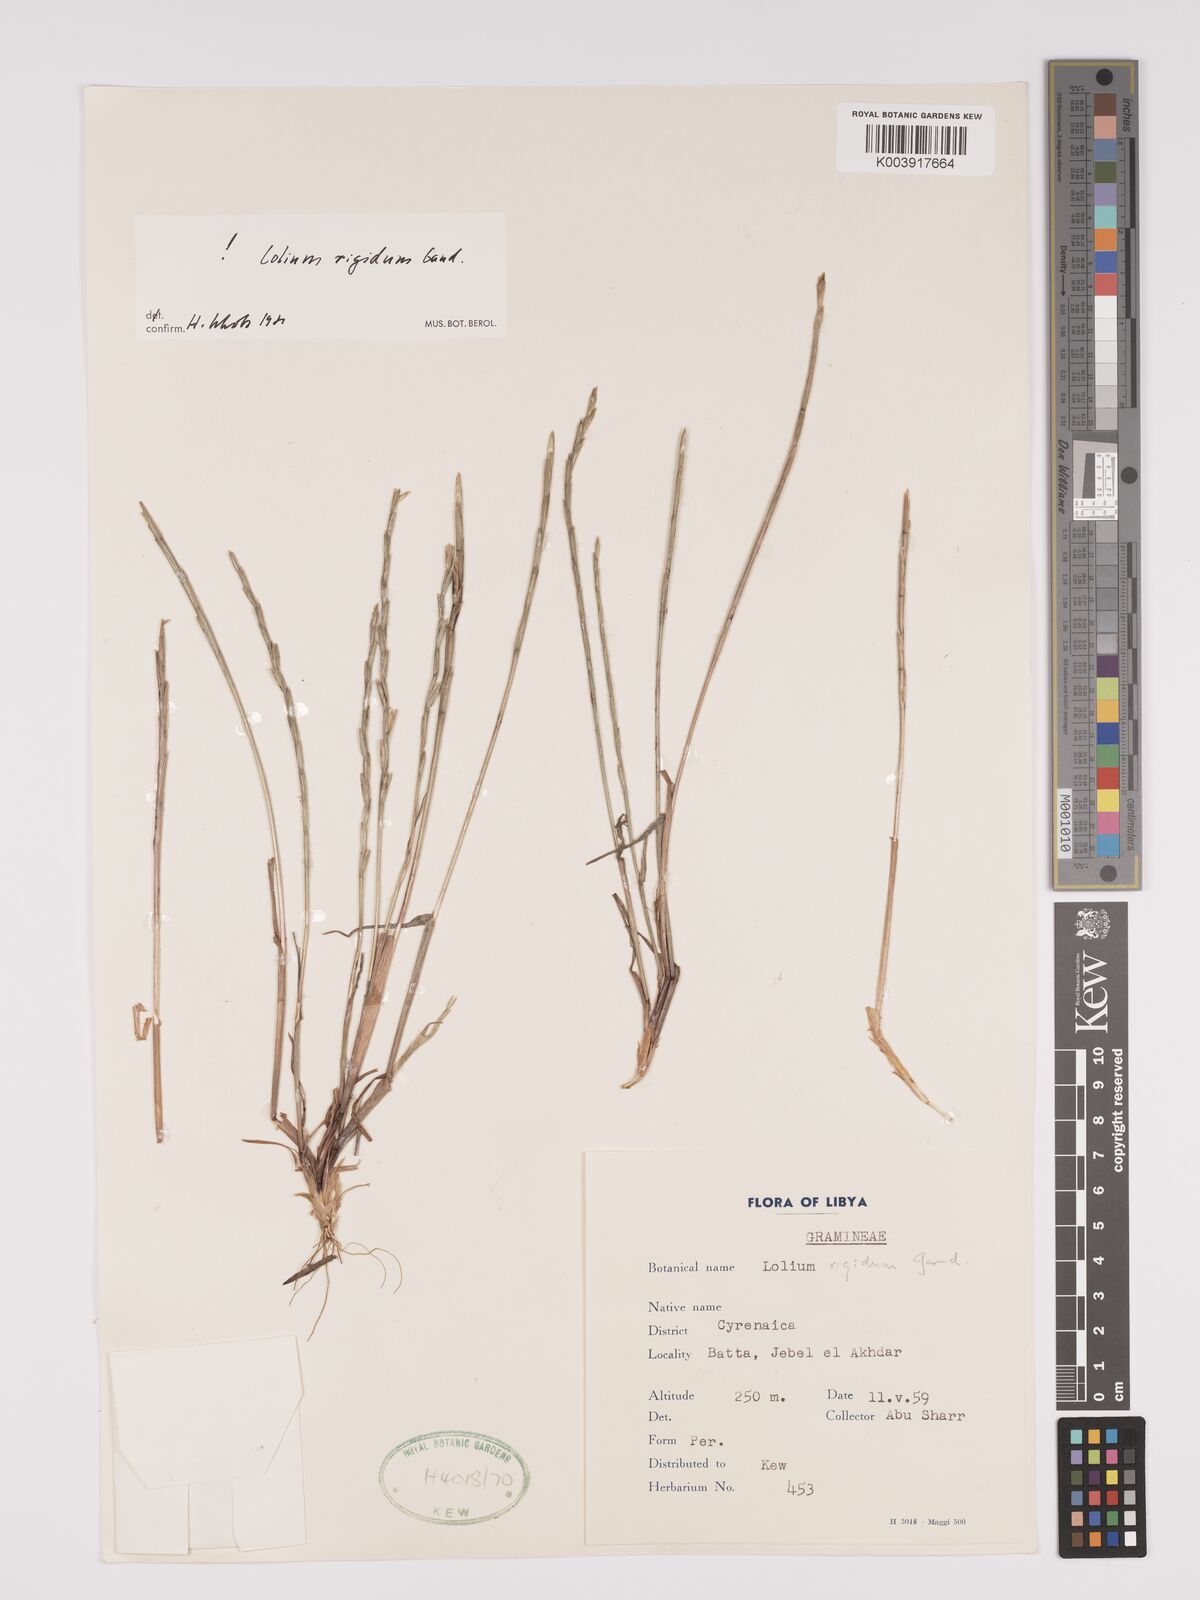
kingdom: Plantae
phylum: Tracheophyta
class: Liliopsida
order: Poales
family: Poaceae
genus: Lolium
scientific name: Lolium rigidum
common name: Wimmera ryegrass
